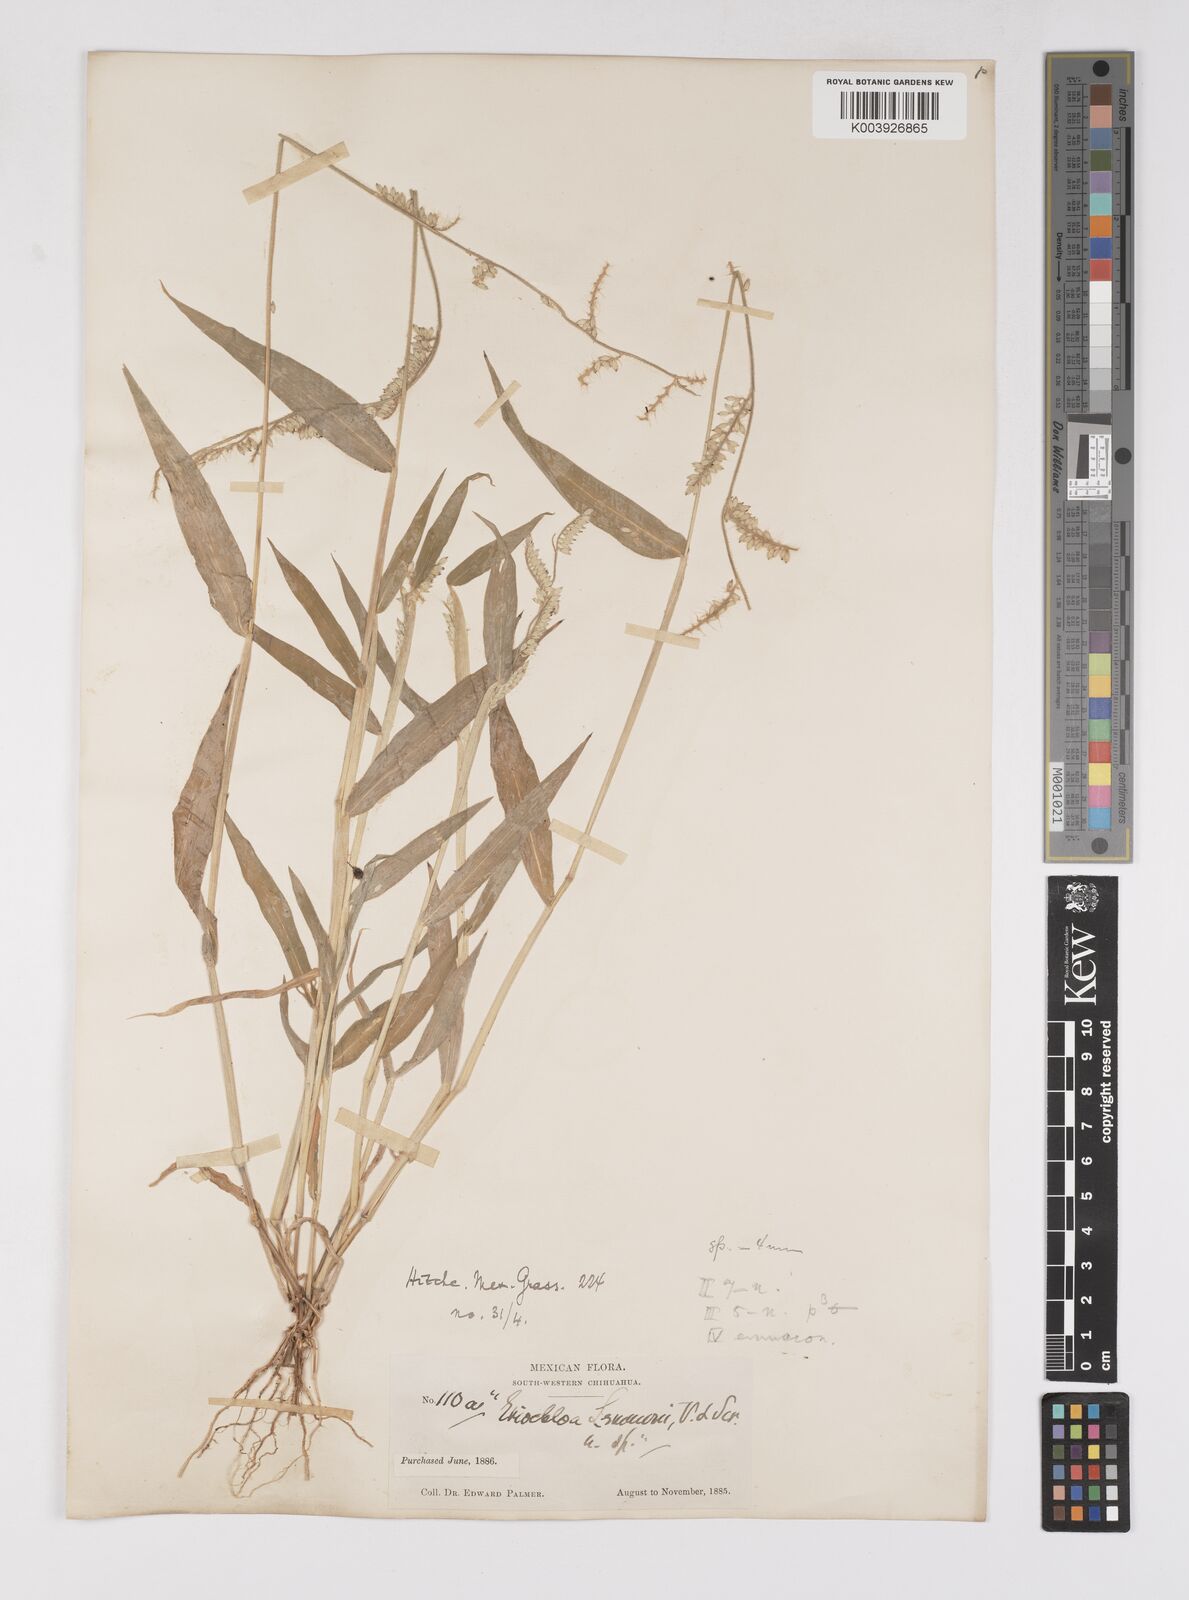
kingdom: Plantae
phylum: Tracheophyta
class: Liliopsida
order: Poales
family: Poaceae
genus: Eriochloa
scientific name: Eriochloa lemmonii
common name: Canyon cup grass
